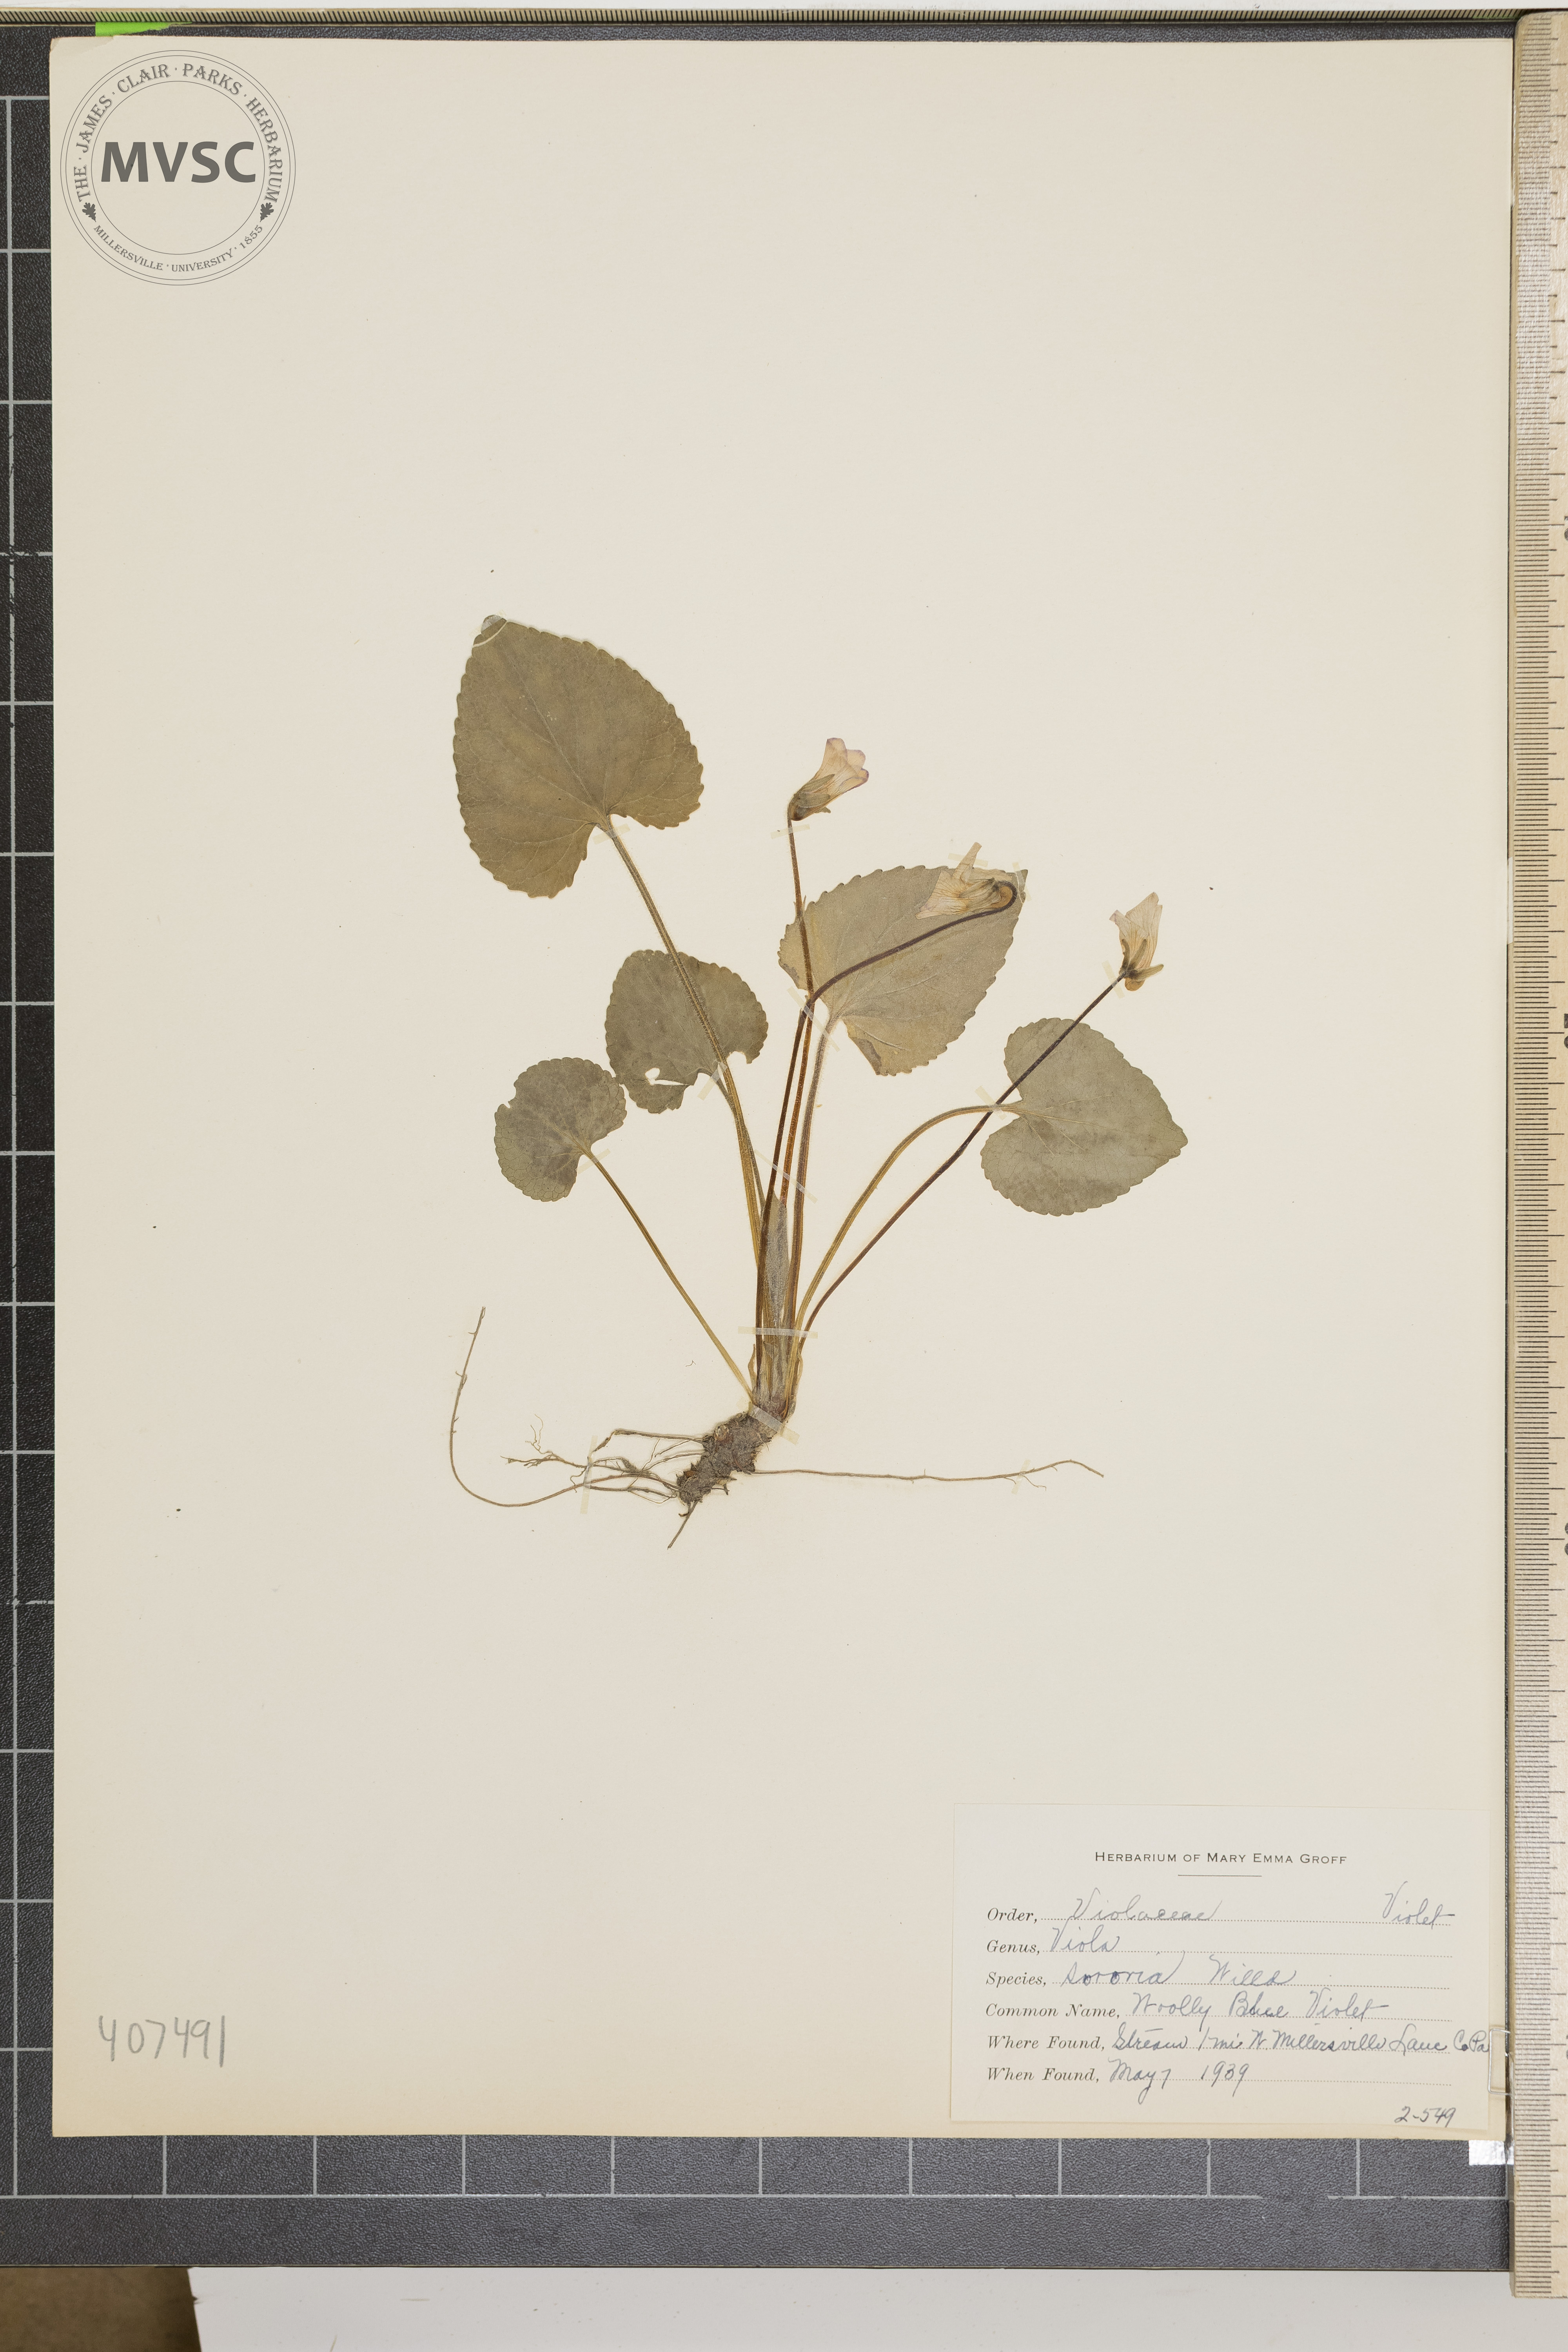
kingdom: Plantae
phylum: Tracheophyta
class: Magnoliopsida
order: Malpighiales
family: Violaceae
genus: Viola
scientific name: Viola sororia
